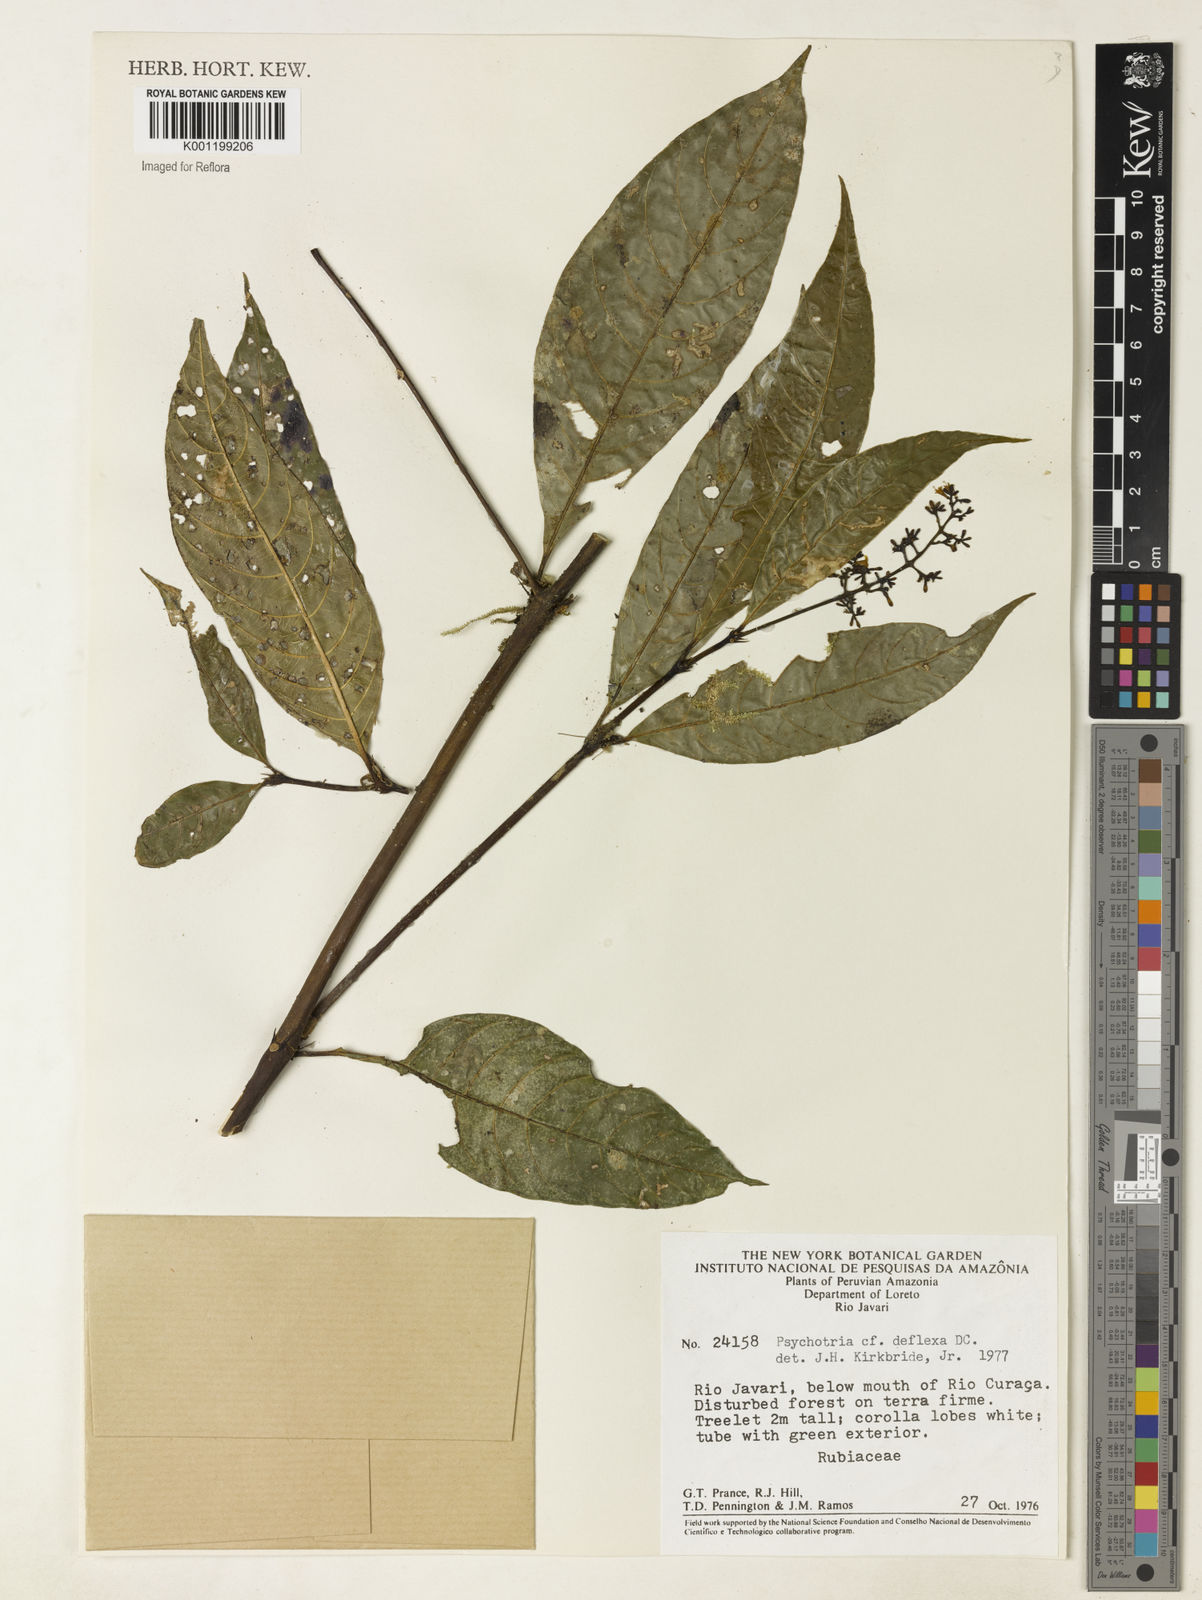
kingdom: Plantae
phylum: Tracheophyta
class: Magnoliopsida
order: Gentianales
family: Rubiaceae
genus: Palicourea
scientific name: Palicourea deflexa
